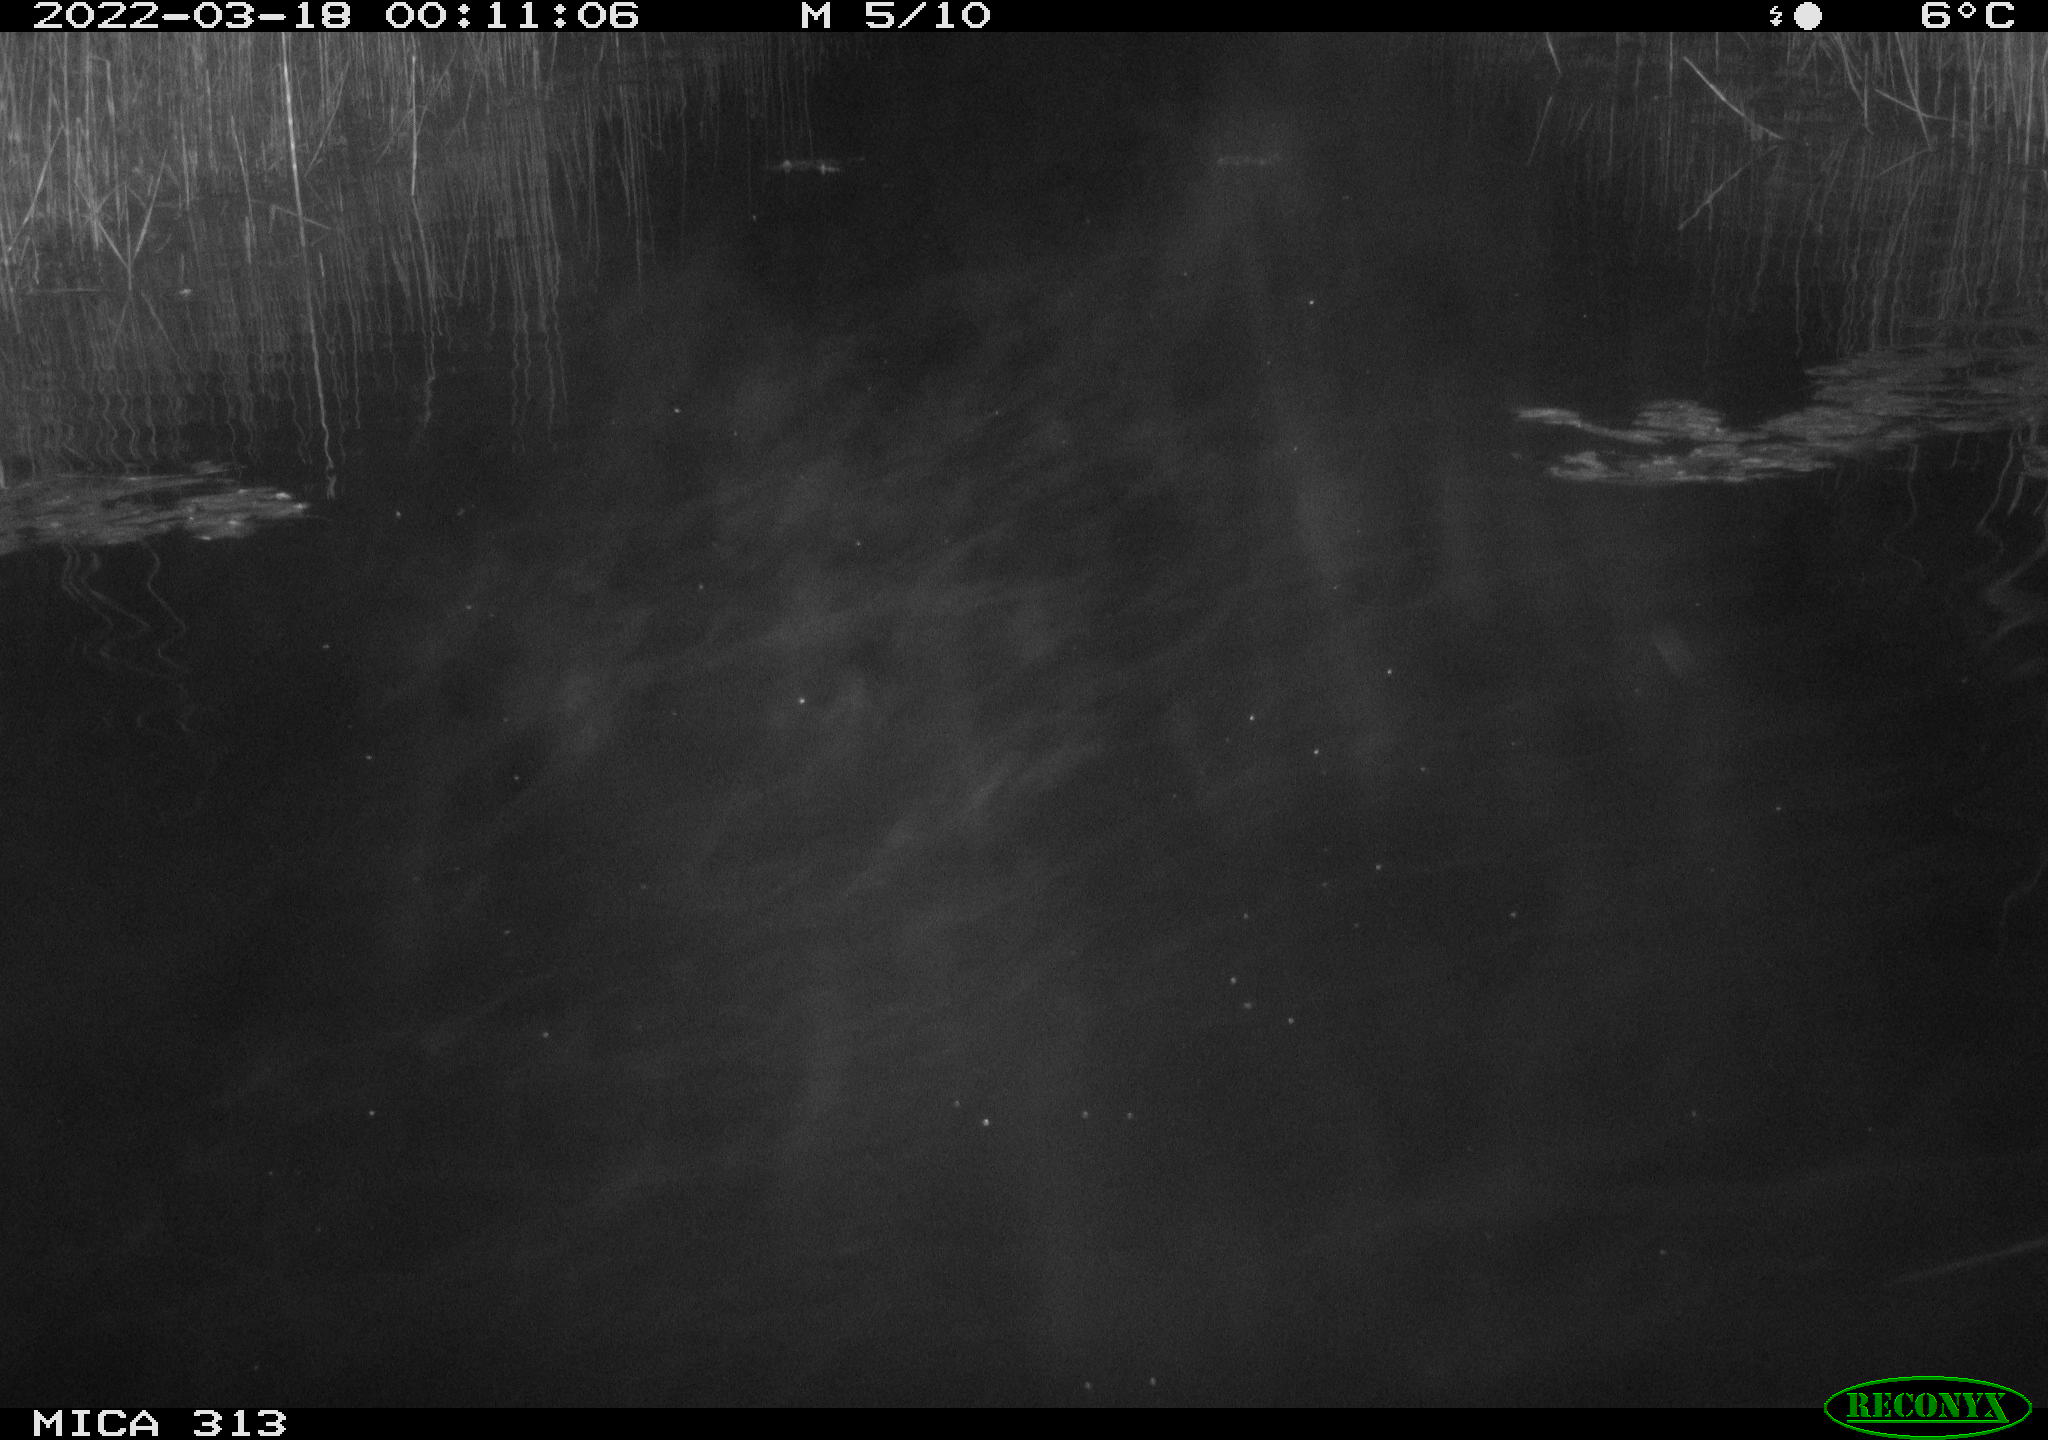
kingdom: Animalia
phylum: Chordata
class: Aves
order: Gruiformes
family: Rallidae
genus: Gallinula
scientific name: Gallinula chloropus
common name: Common moorhen
